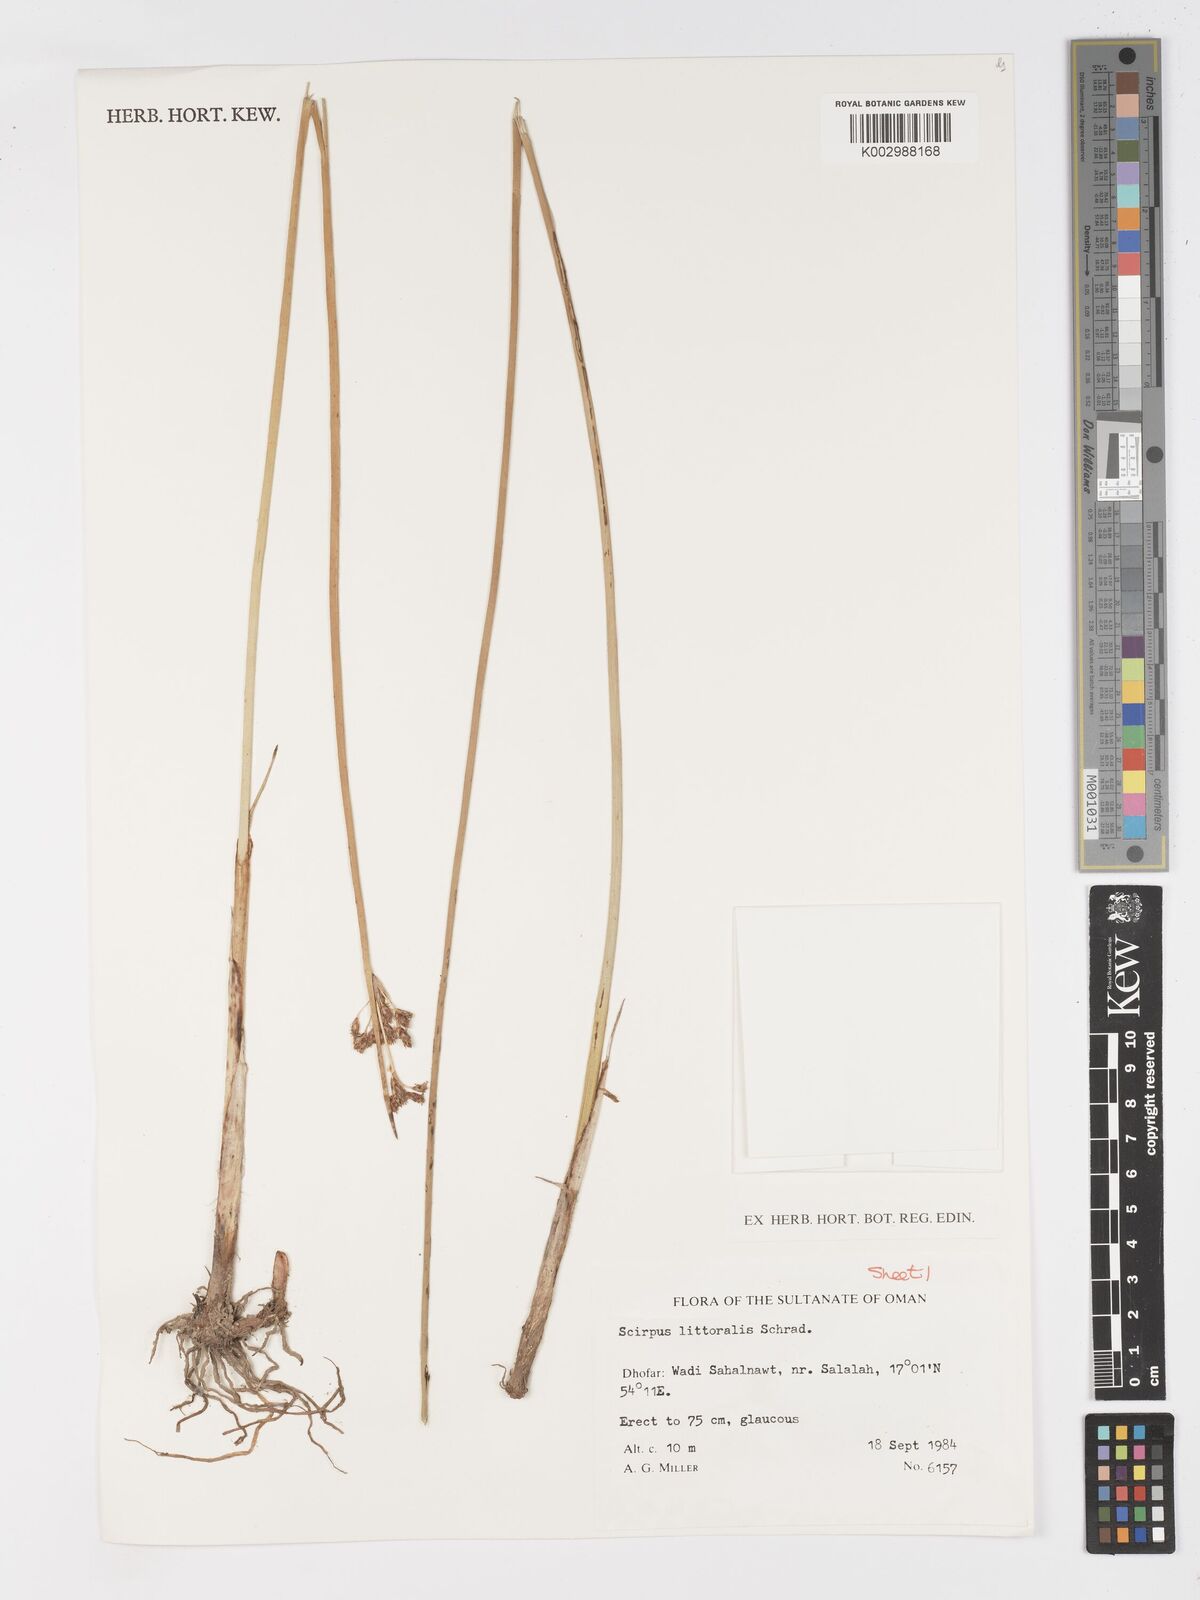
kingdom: Plantae
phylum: Tracheophyta
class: Liliopsida
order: Poales
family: Cyperaceae
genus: Schoenoplectus
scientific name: Schoenoplectus litoralis
